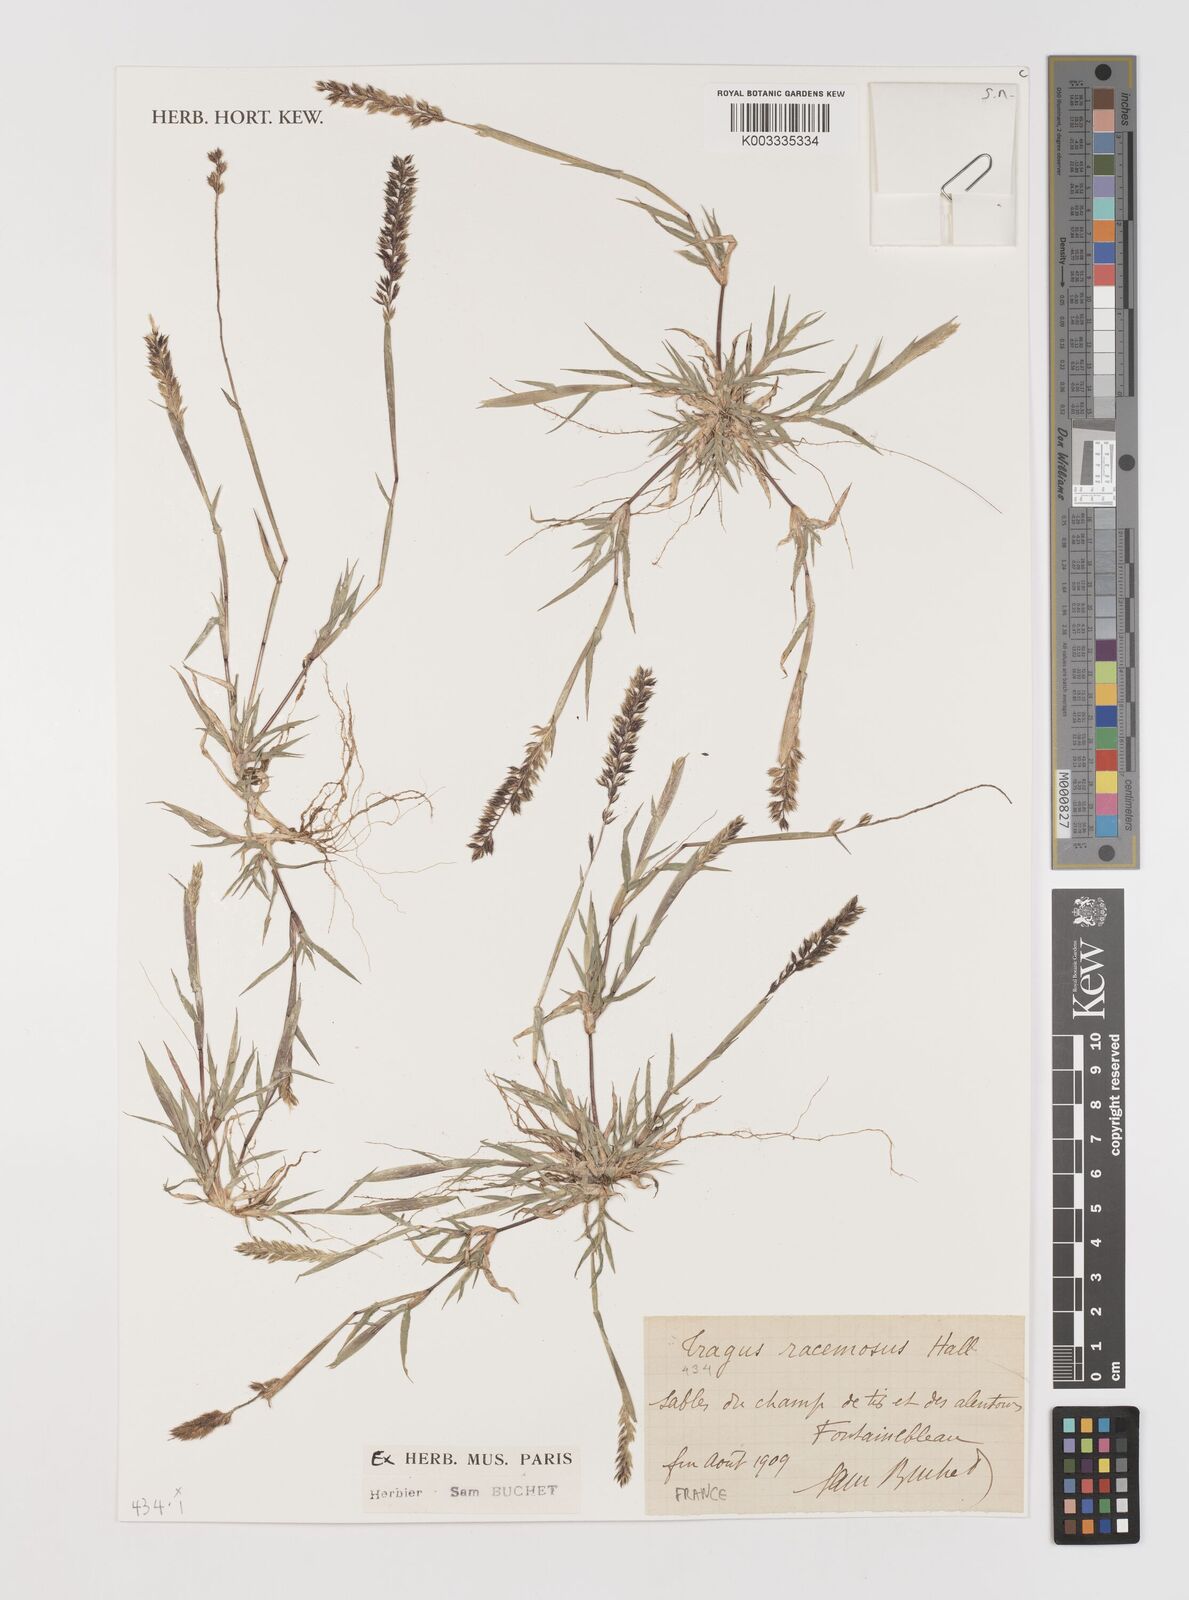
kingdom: Plantae
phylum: Tracheophyta
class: Liliopsida
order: Poales
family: Poaceae
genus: Tragus
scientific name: Tragus racemosus
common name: European bur-grass
